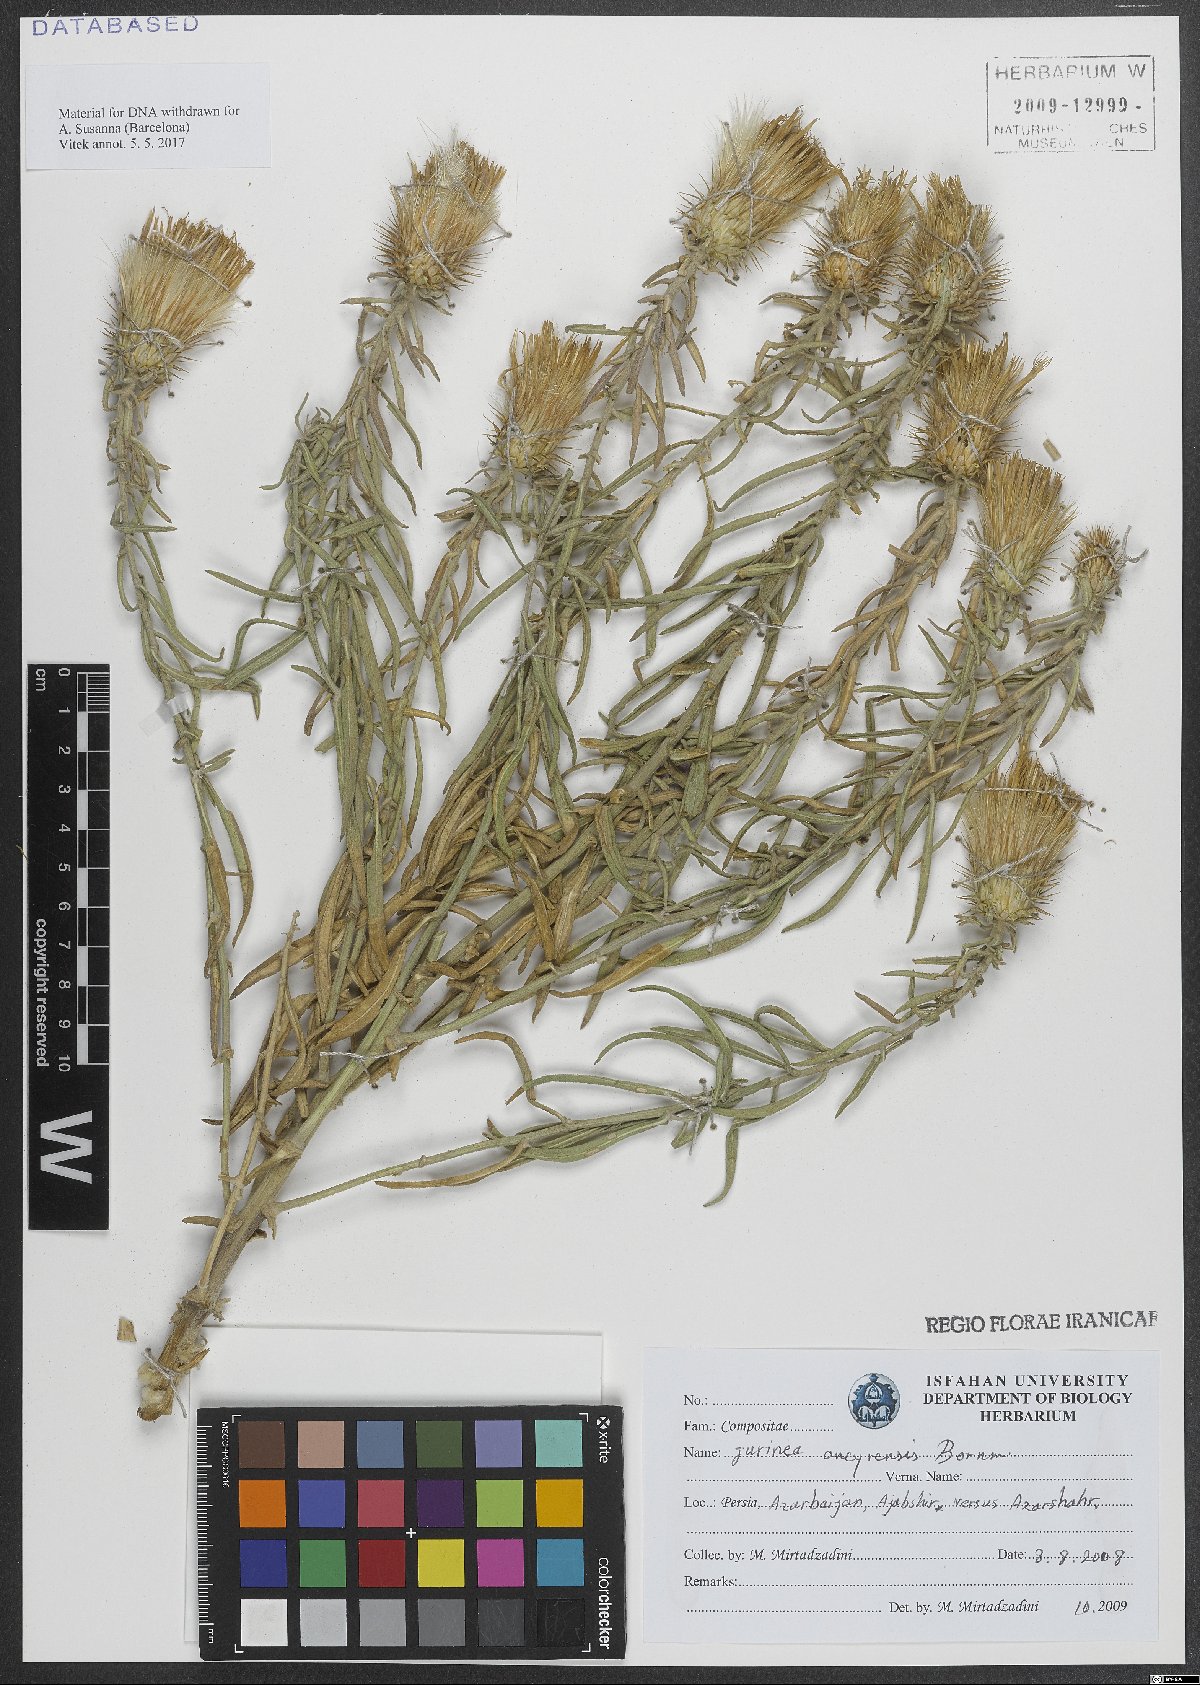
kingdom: Plantae
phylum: Tracheophyta
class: Magnoliopsida
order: Asterales
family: Asteraceae
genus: Jurinea
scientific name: Jurinea ancyrensis
